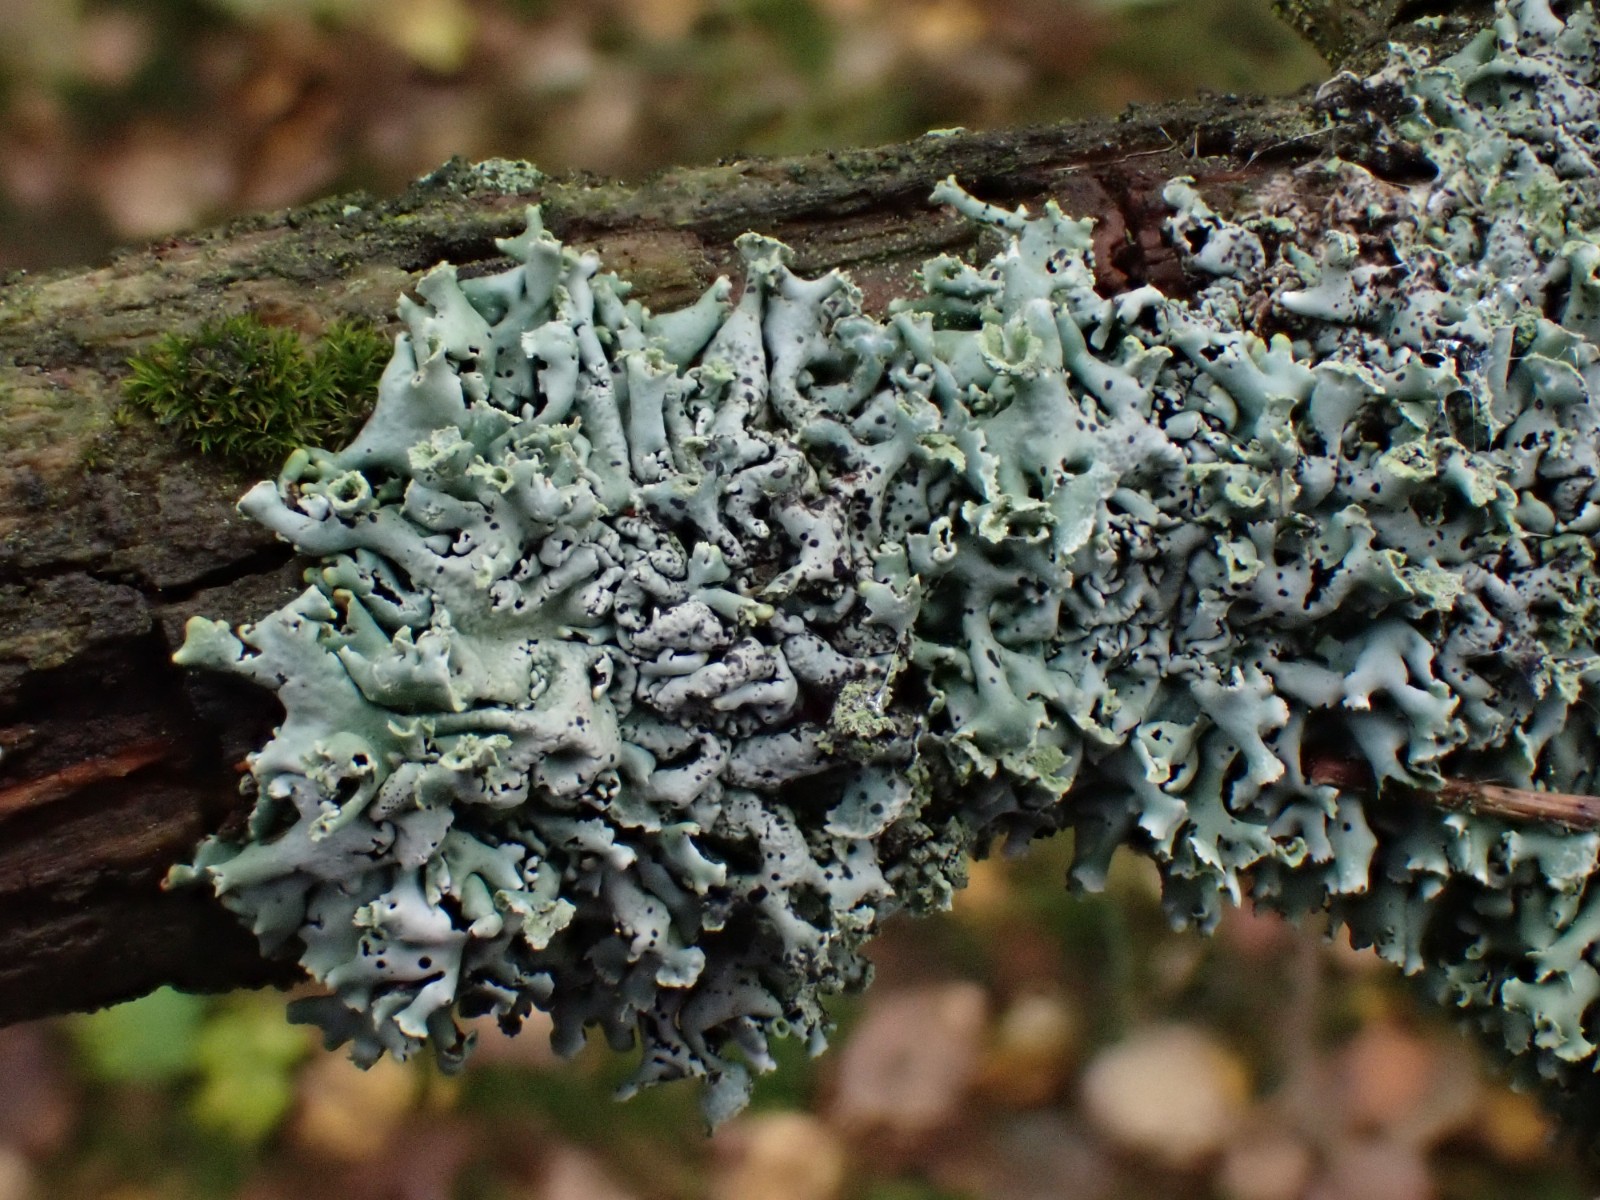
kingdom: Fungi
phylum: Ascomycota
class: Lecanoromycetes
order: Lecanorales
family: Parmeliaceae
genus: Hypogymnia
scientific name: Hypogymnia physodes
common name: almindelig kvistlav
